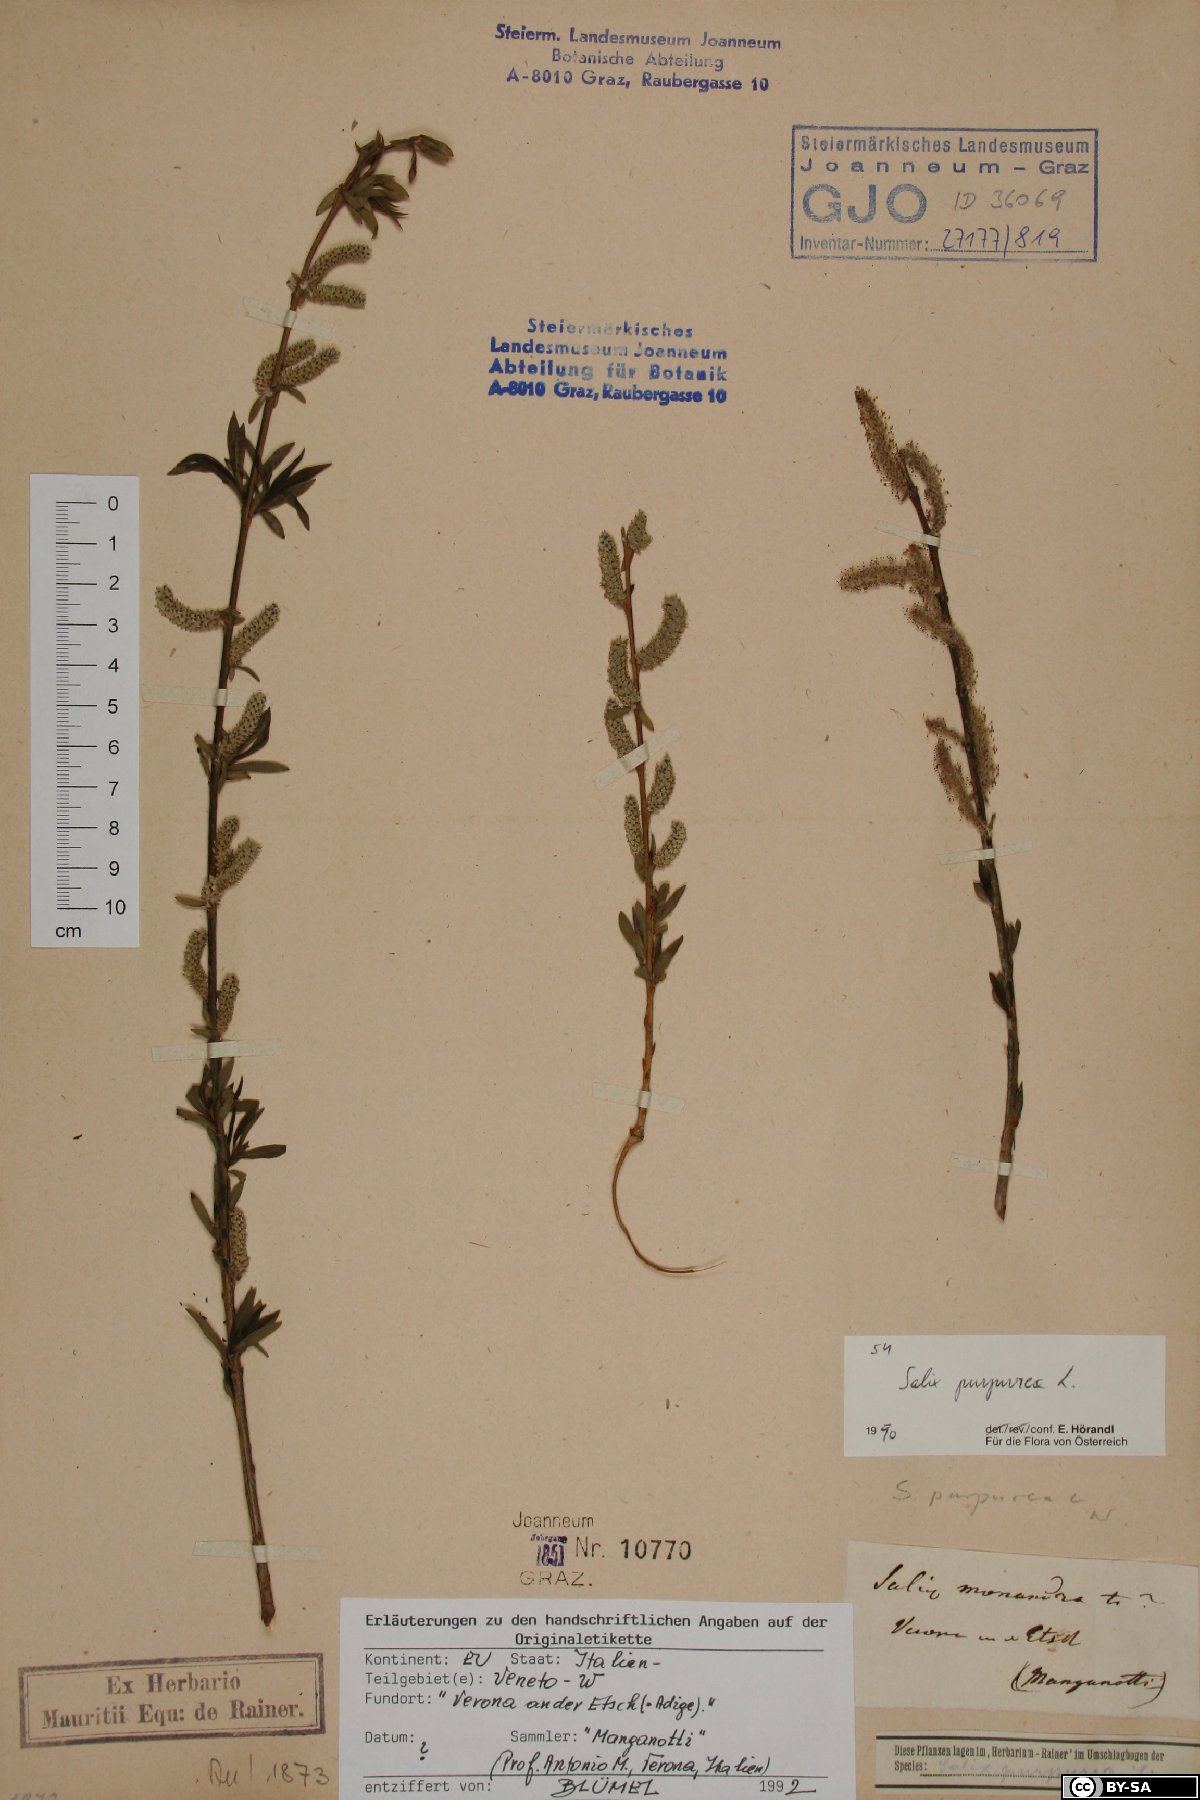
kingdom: Plantae
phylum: Tracheophyta
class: Magnoliopsida
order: Malpighiales
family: Salicaceae
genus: Salix
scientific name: Salix purpurea
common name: Purple willow
